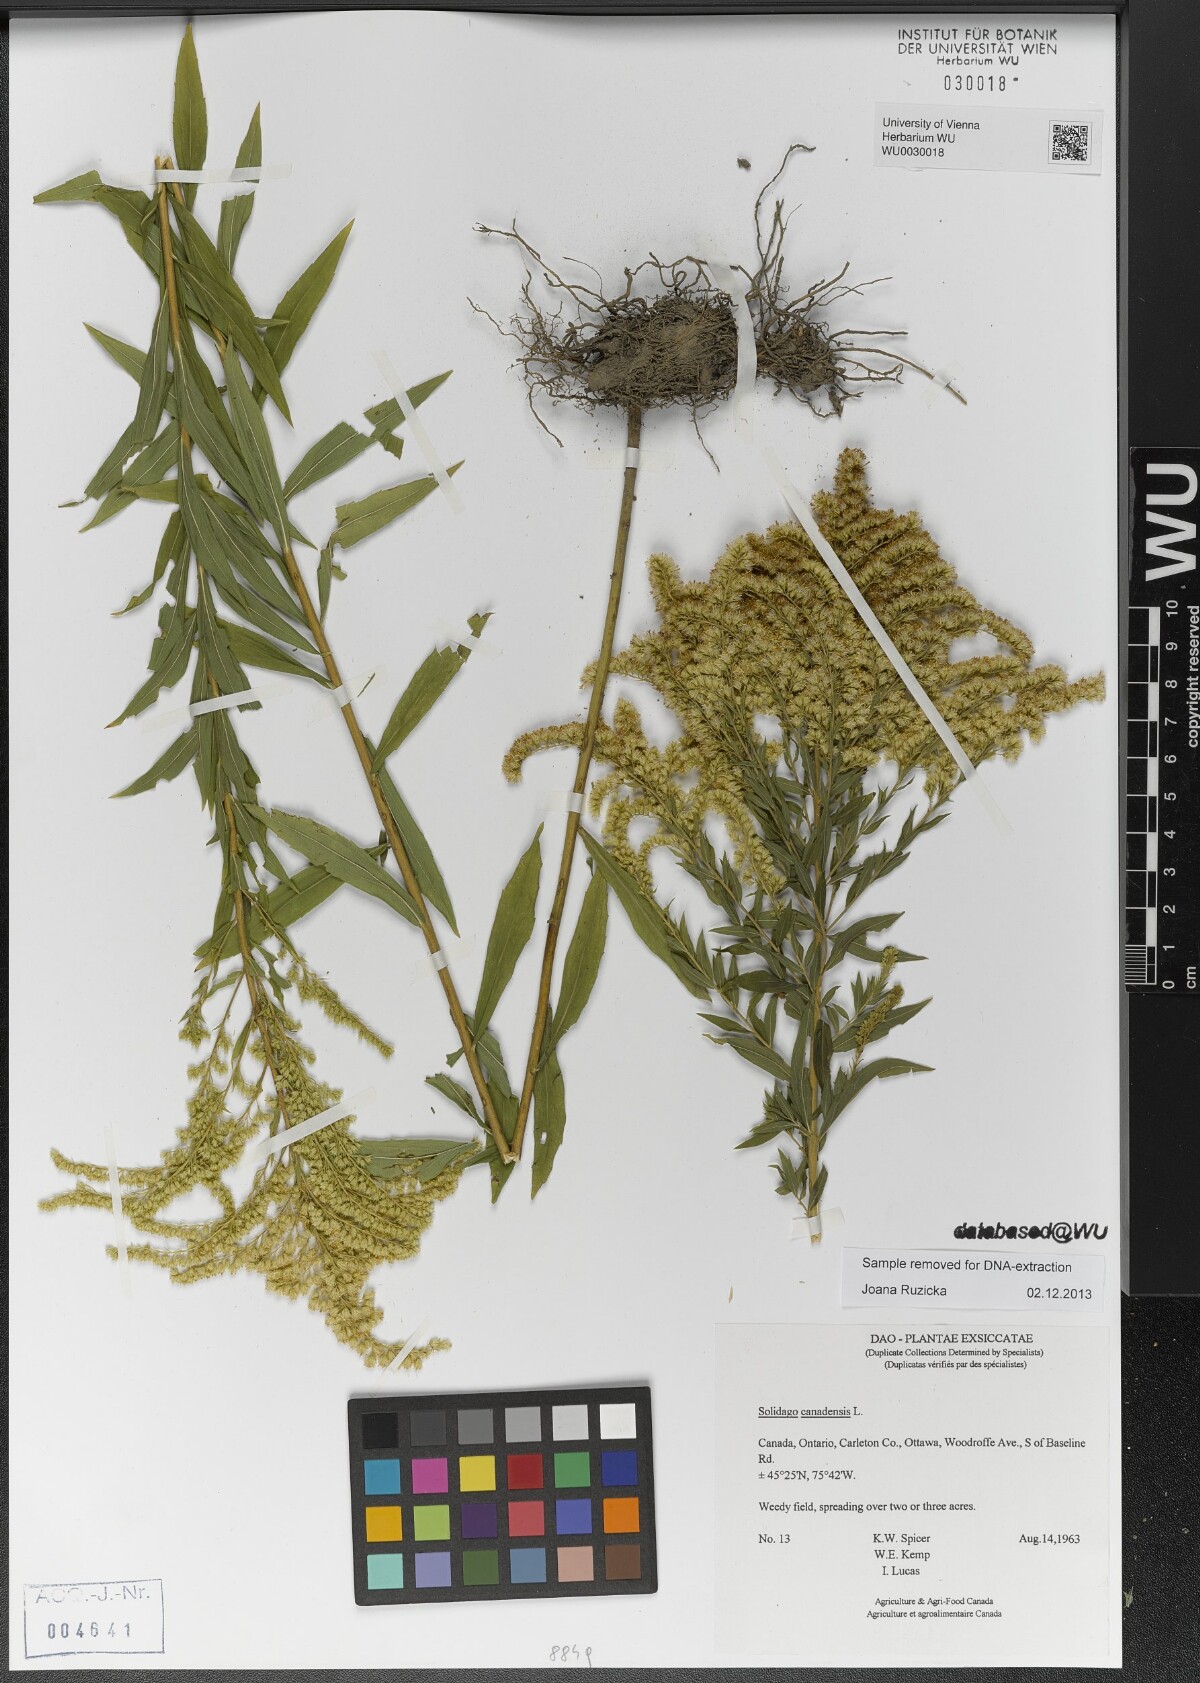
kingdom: Plantae
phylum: Tracheophyta
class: Magnoliopsida
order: Asterales
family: Asteraceae
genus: Solidago
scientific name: Solidago canadensis
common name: Canada goldenrod
